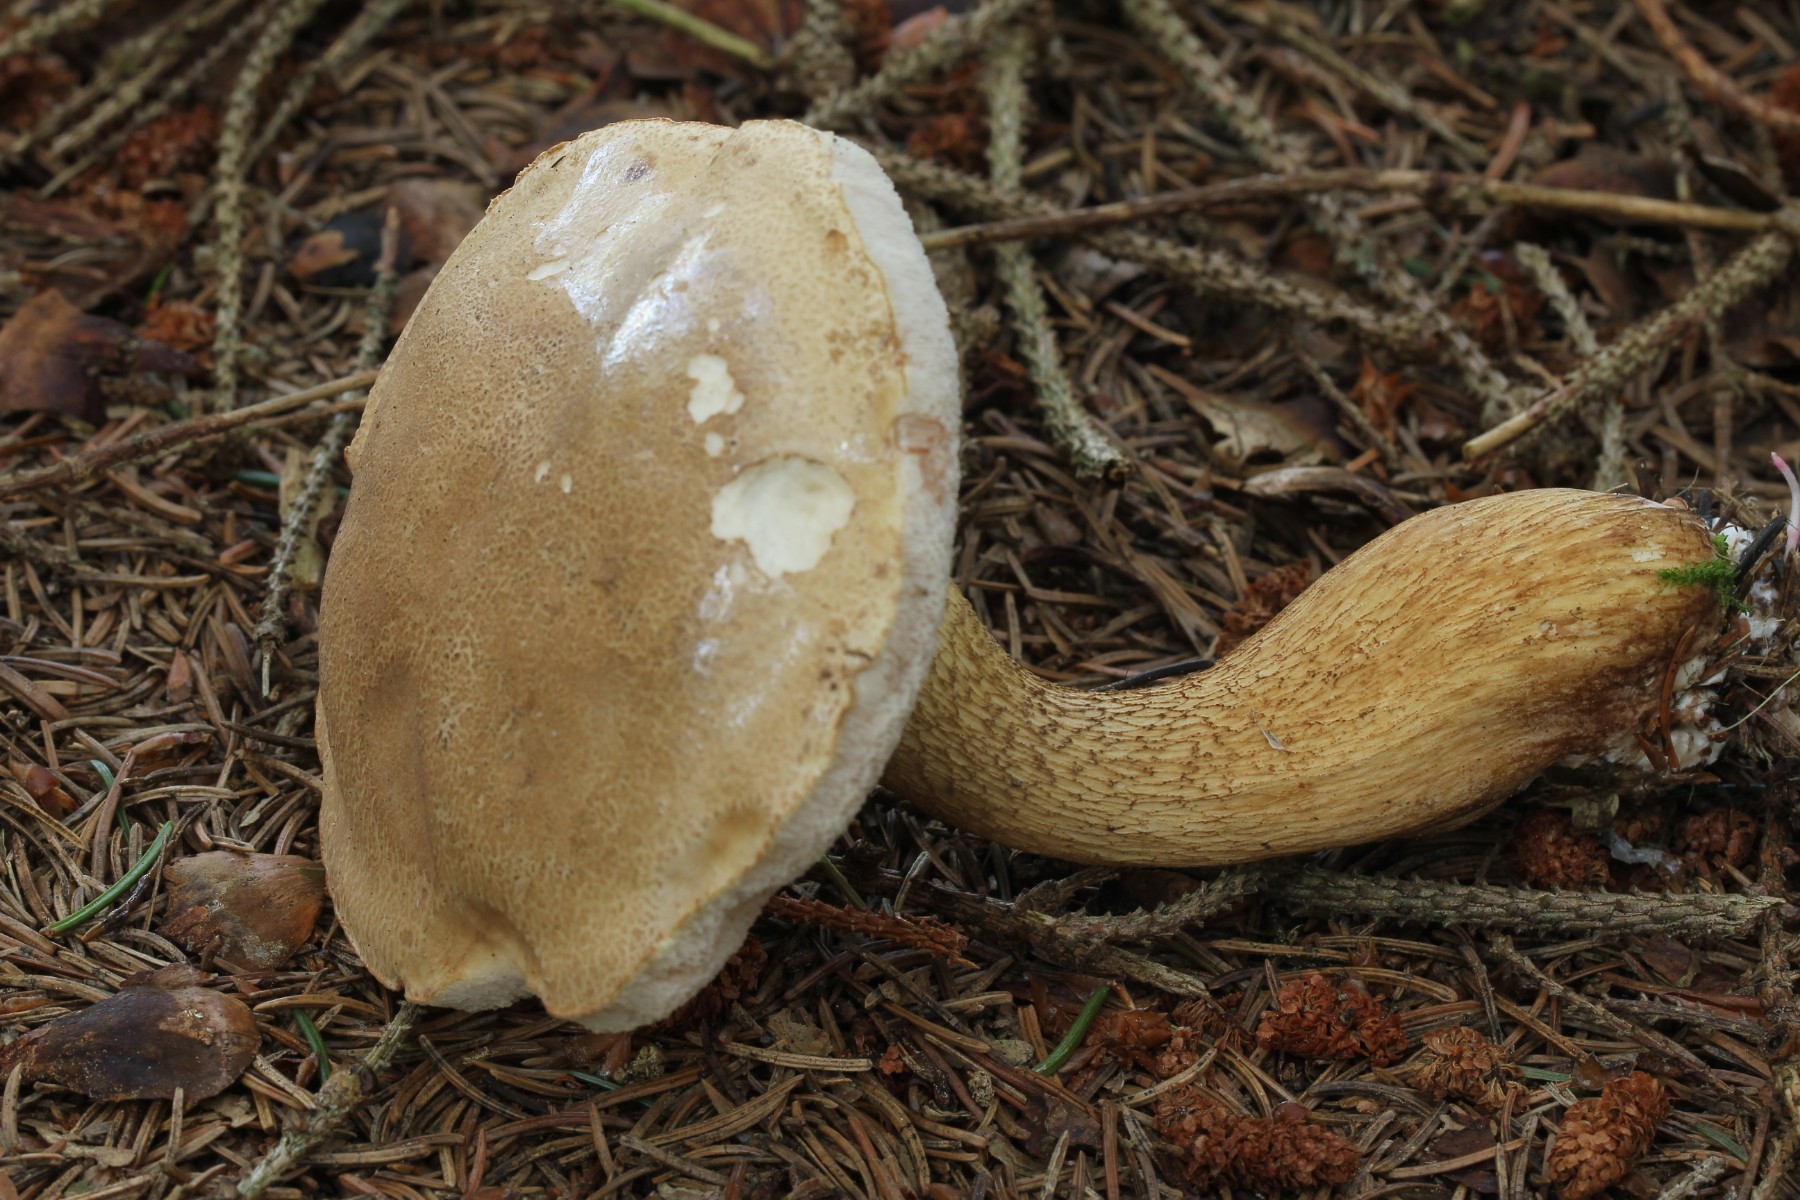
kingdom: Fungi
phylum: Basidiomycota
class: Agaricomycetes
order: Boletales
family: Boletaceae
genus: Tylopilus
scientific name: Tylopilus felleus
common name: galderørhat
